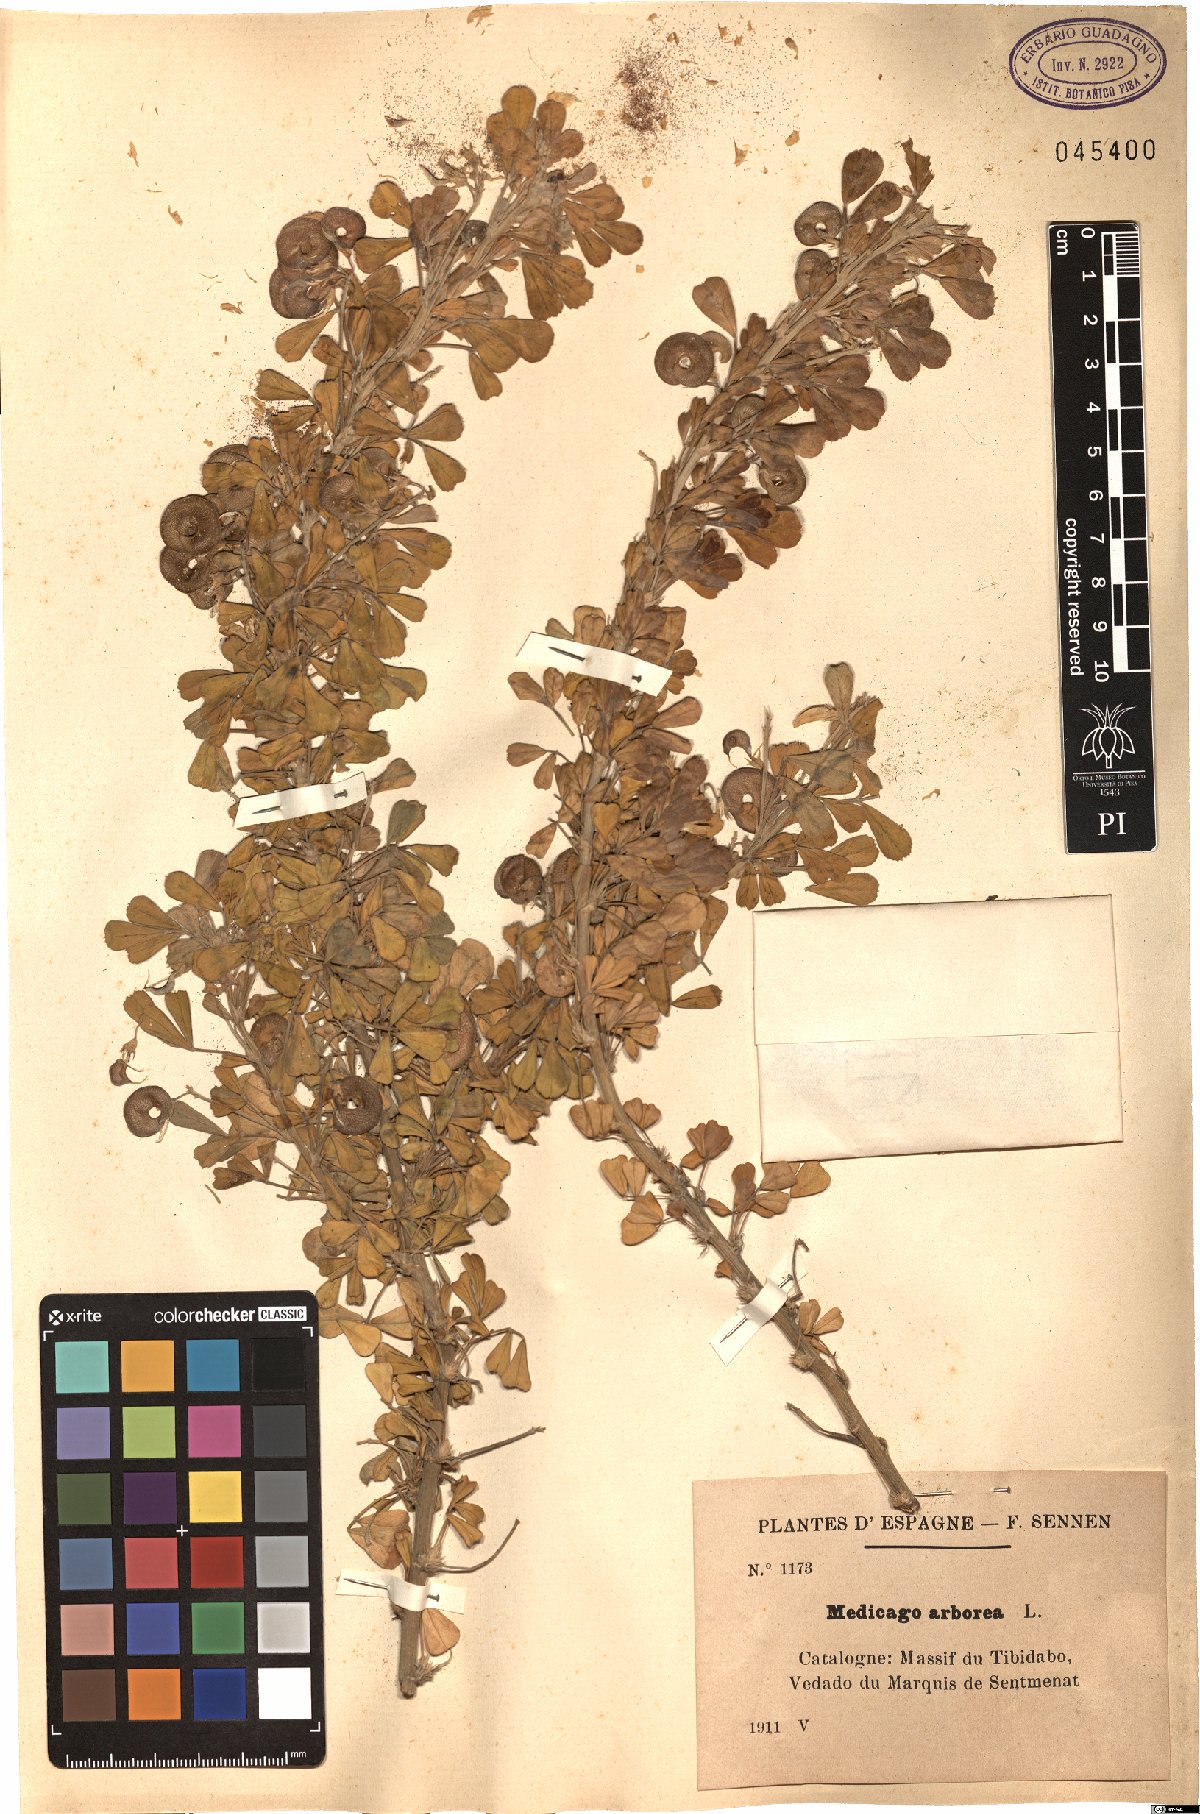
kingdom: Plantae
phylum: Tracheophyta
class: Magnoliopsida
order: Fabales
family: Fabaceae
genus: Medicago
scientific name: Medicago arborea
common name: Moon trefoil
